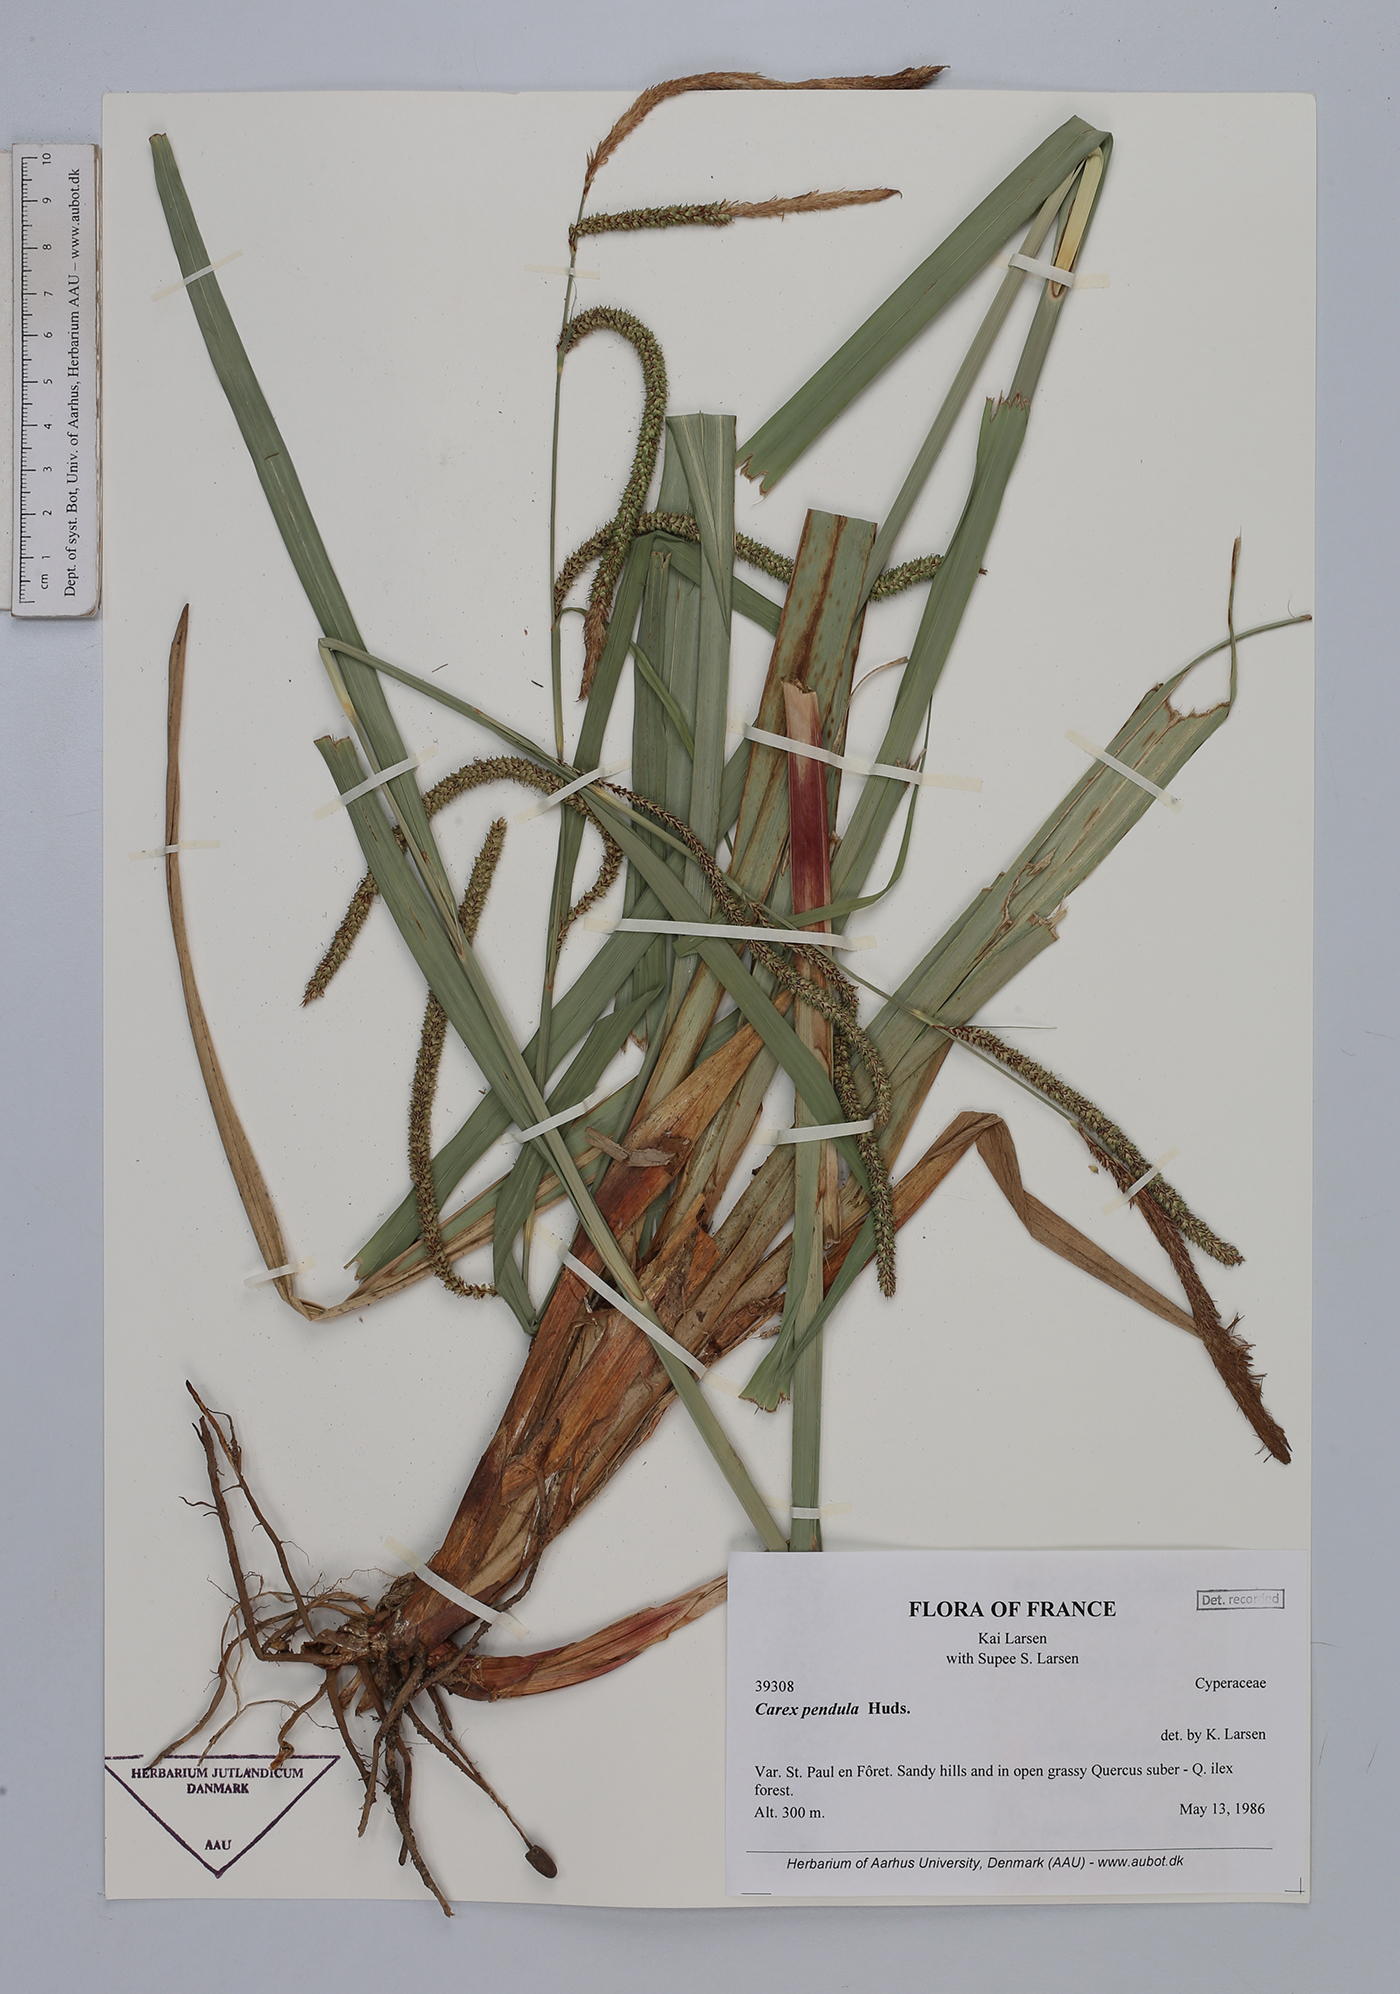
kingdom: Plantae
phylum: Tracheophyta
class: Liliopsida
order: Poales
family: Cyperaceae
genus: Carex
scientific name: Carex pendula
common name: Pendulous sedge
